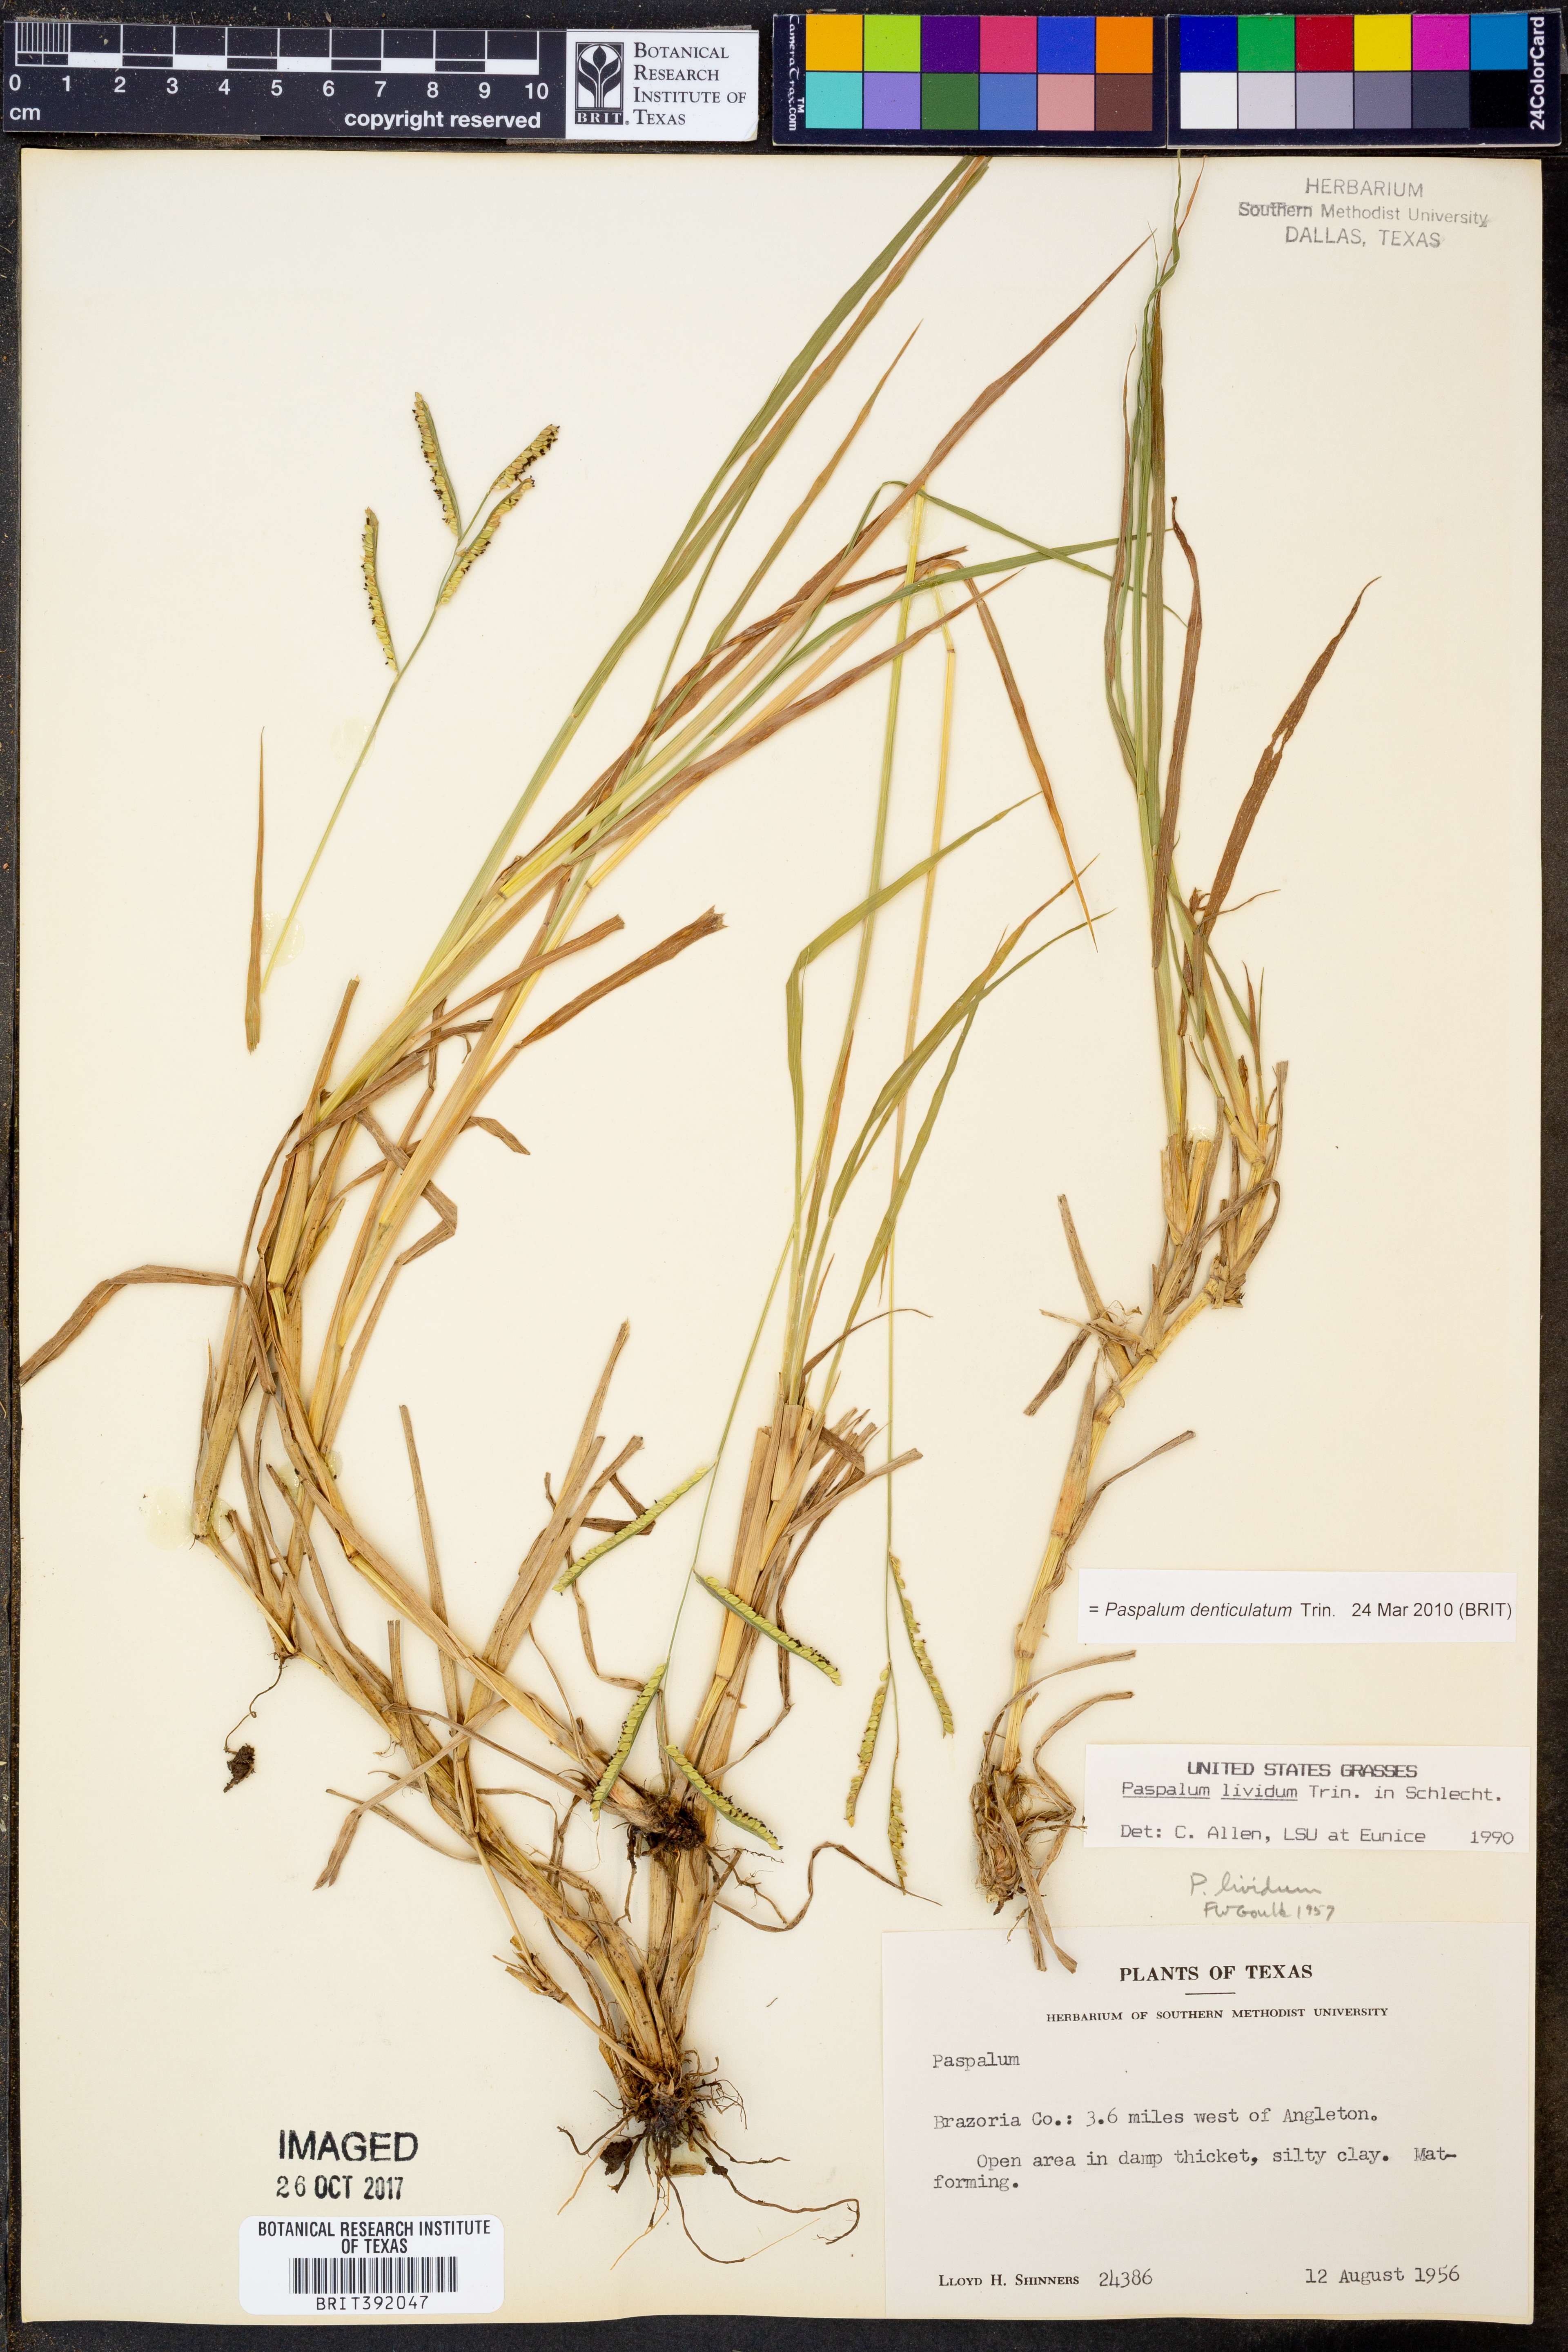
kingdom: Plantae
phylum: Tracheophyta
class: Liliopsida
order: Poales
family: Poaceae
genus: Paspalum
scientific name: Paspalum denticulatum
